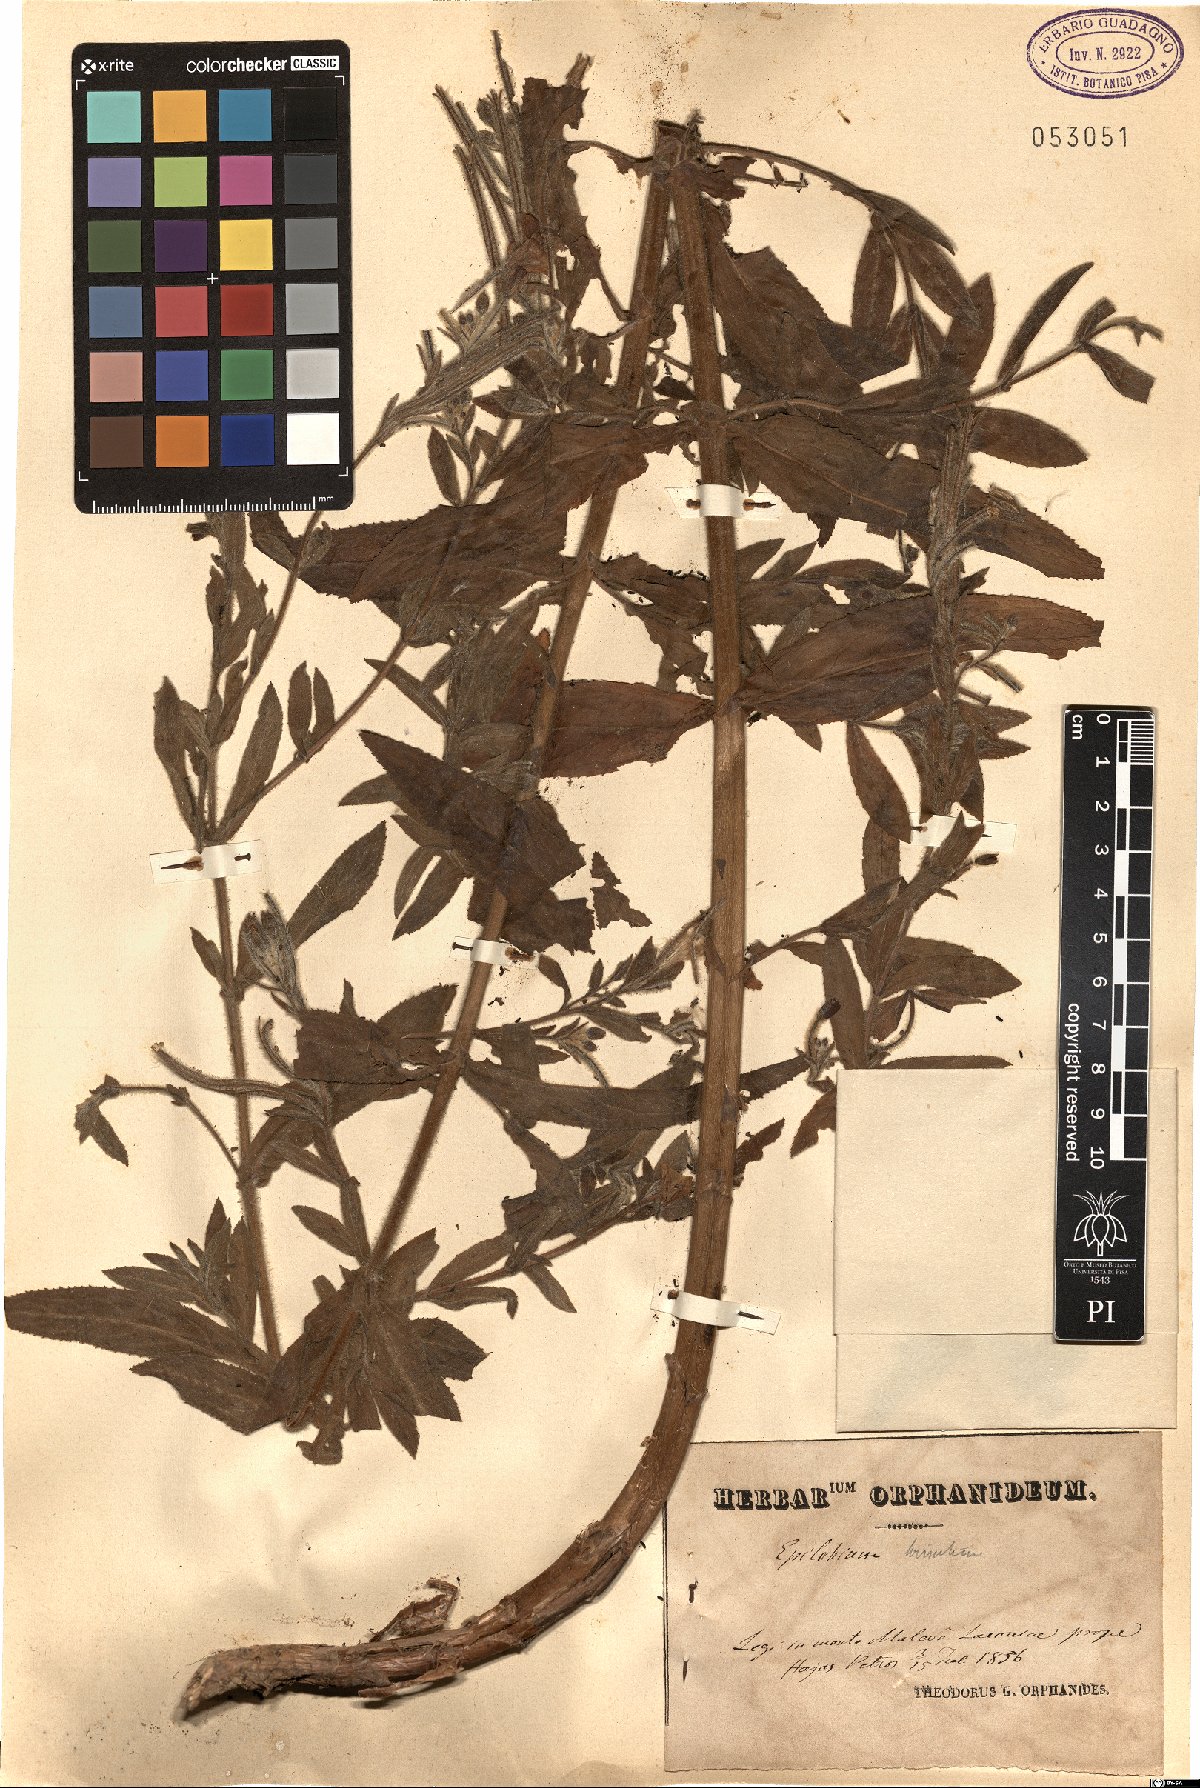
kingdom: Plantae
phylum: Tracheophyta
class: Magnoliopsida
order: Myrtales
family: Onagraceae
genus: Epilobium
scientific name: Epilobium hirsutum
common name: Great willowherb
